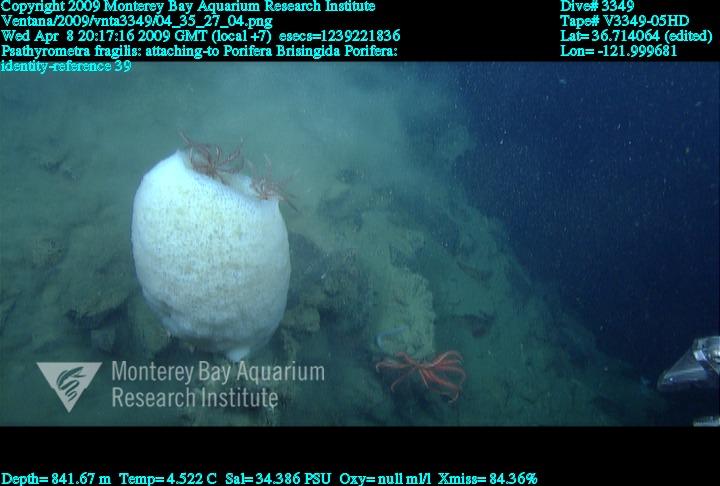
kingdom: Animalia
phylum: Porifera
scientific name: Porifera
